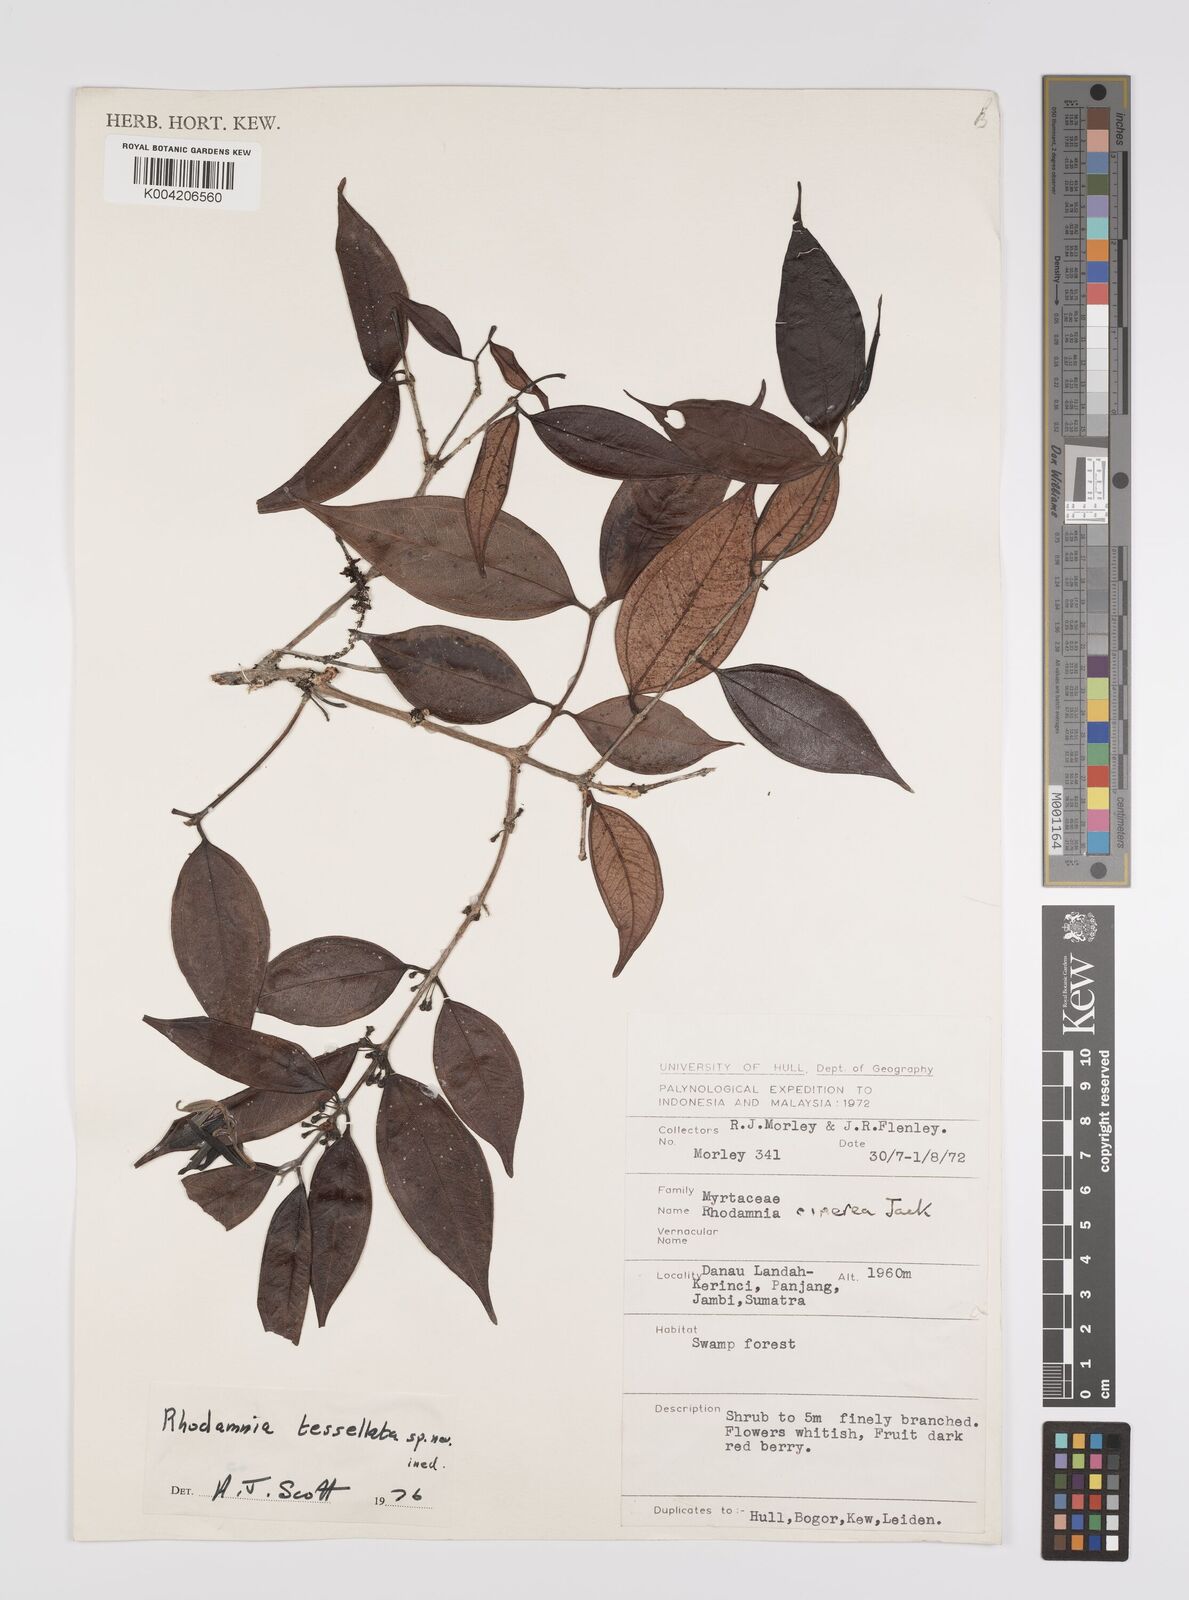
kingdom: Plantae
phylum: Tracheophyta
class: Magnoliopsida
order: Myrtales
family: Myrtaceae
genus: Rhodamnia
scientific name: Rhodamnia tessellata
